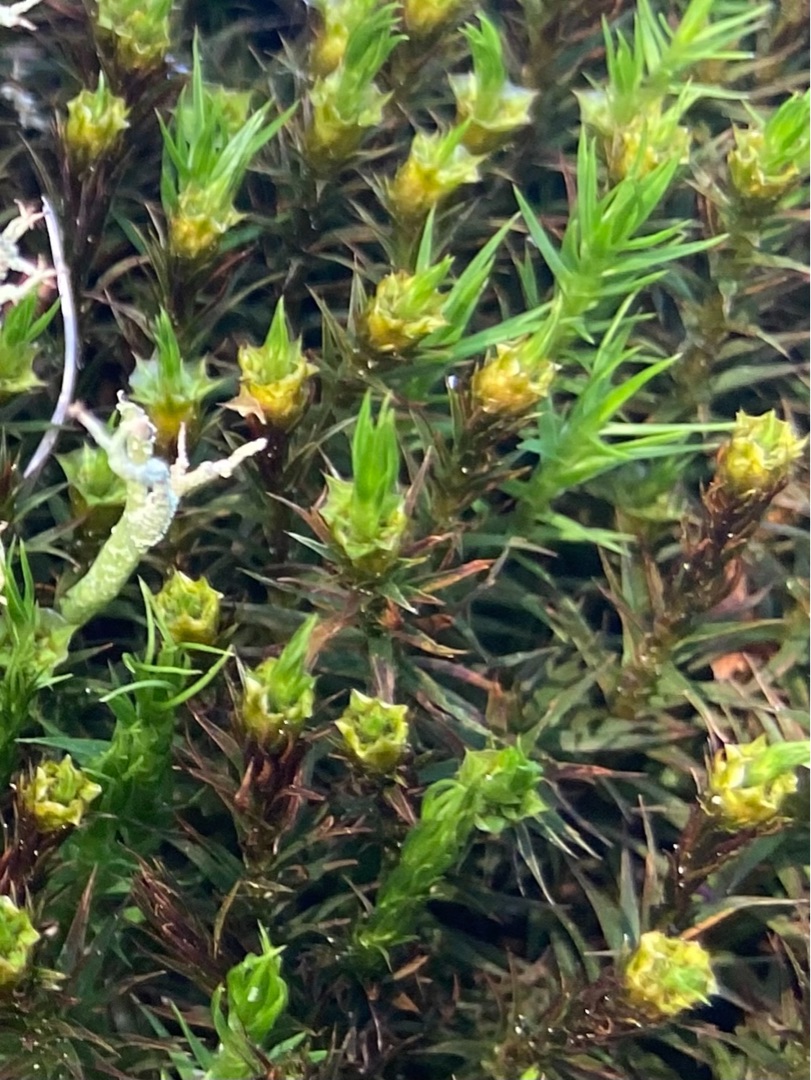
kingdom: Plantae
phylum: Bryophyta
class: Polytrichopsida
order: Polytrichales
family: Polytrichaceae
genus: Polytrichum
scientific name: Polytrichum
